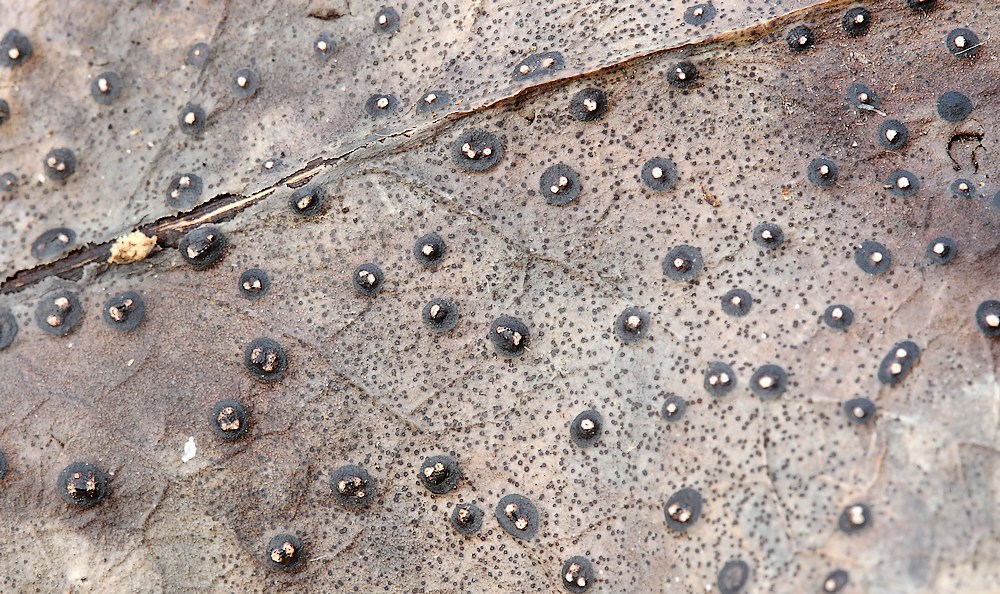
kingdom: Fungi
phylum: Ascomycota
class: Leotiomycetes
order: Phacidiales
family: Phacidiaceae
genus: Phacidium
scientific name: Phacidium lauri
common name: kristtorn-tandskive
